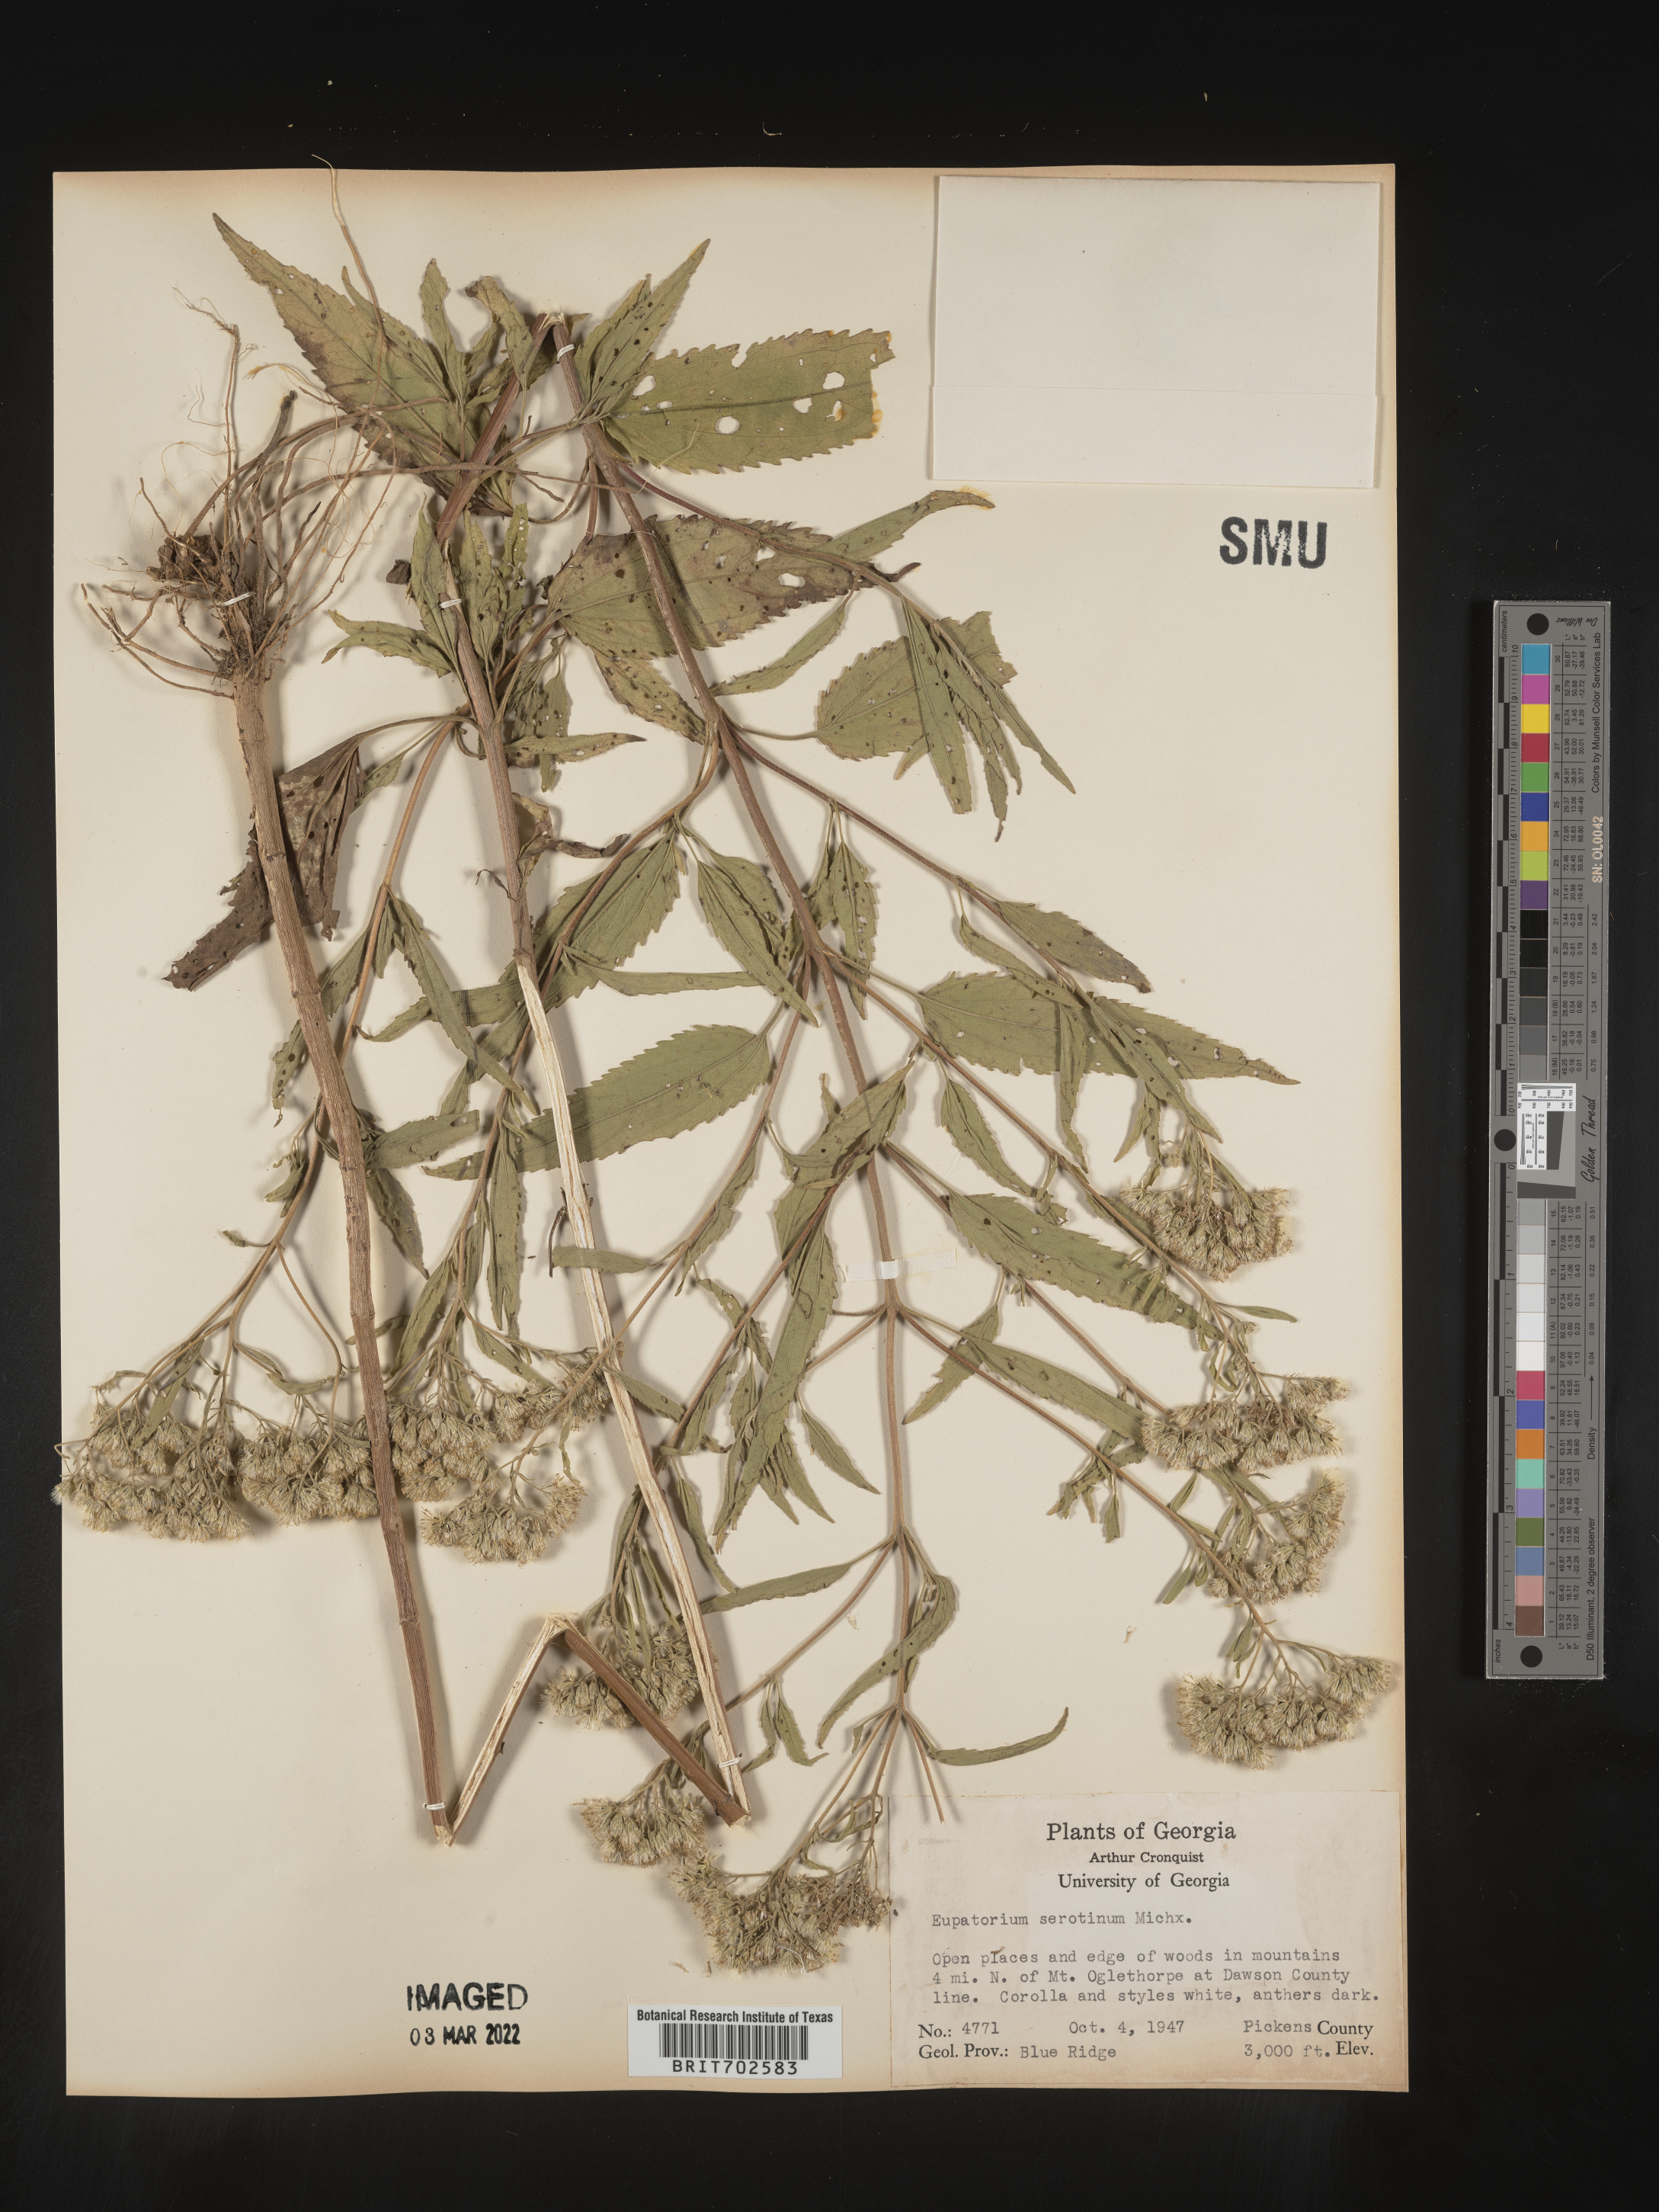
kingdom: Plantae
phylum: Tracheophyta
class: Magnoliopsida
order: Asterales
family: Asteraceae
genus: Eupatorium
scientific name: Eupatorium serotinum
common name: Late boneset
